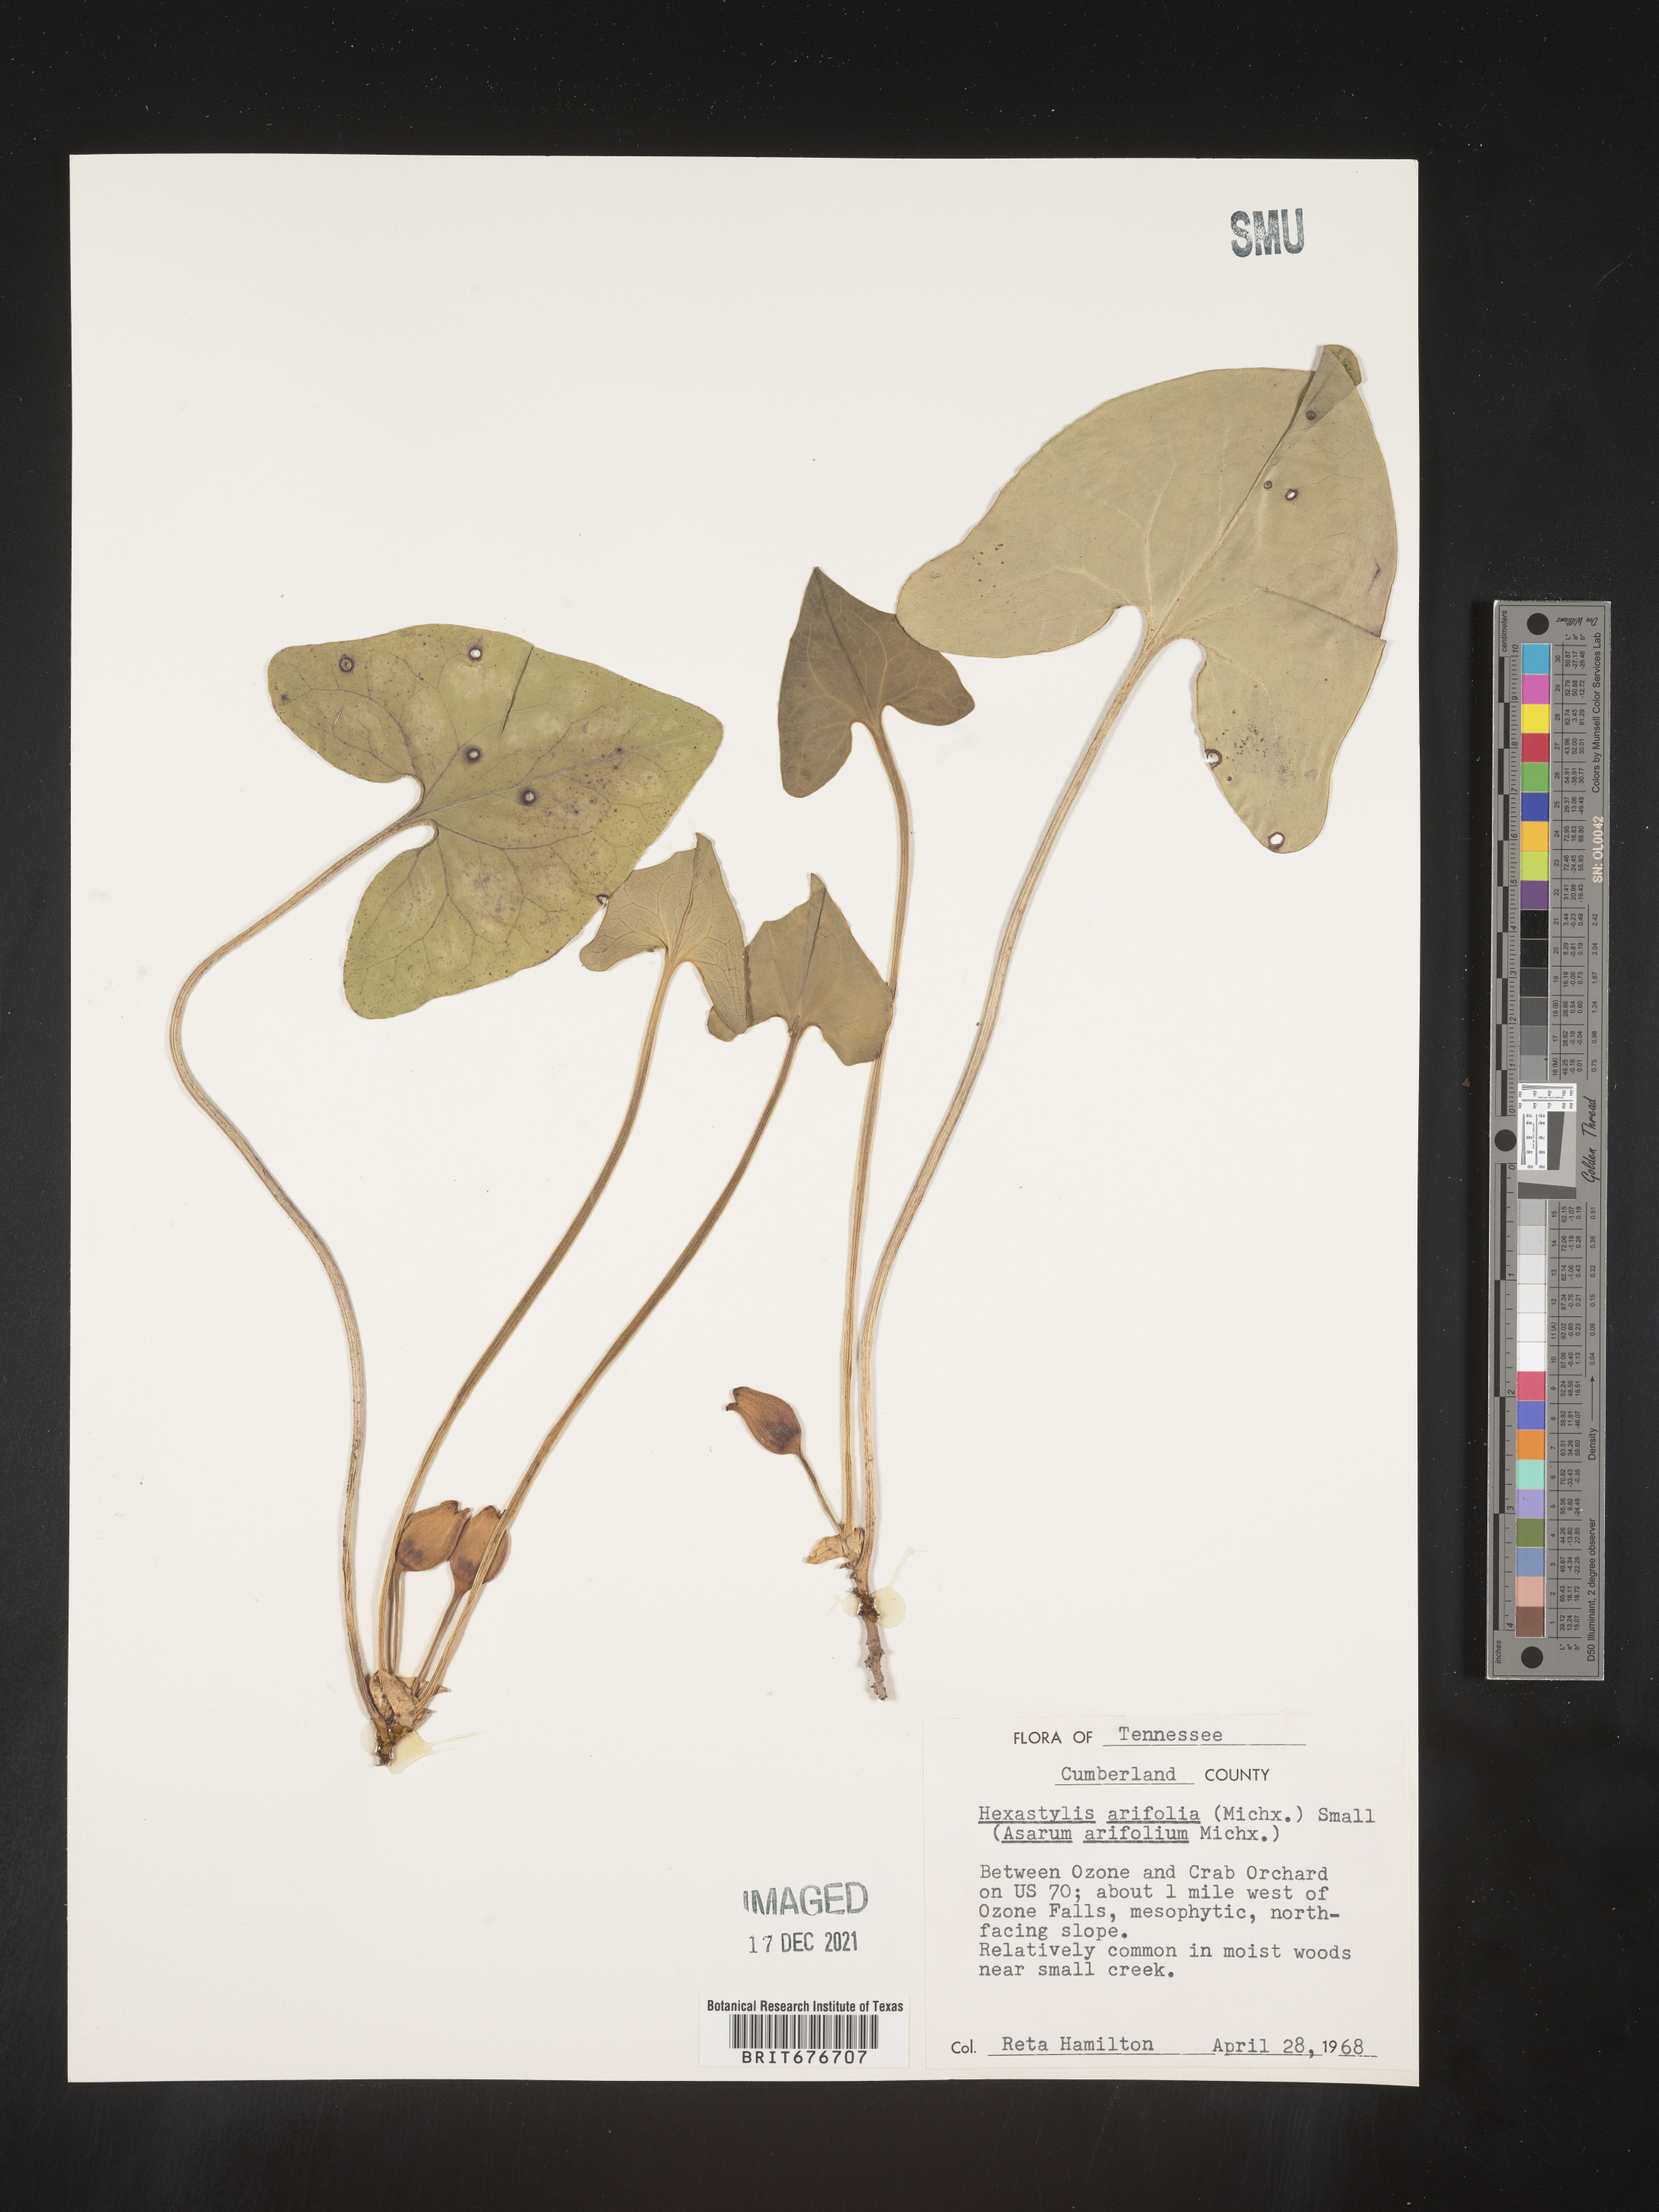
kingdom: Plantae
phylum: Tracheophyta
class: Magnoliopsida
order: Piperales
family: Aristolochiaceae
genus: Hexastylis
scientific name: Hexastylis arifolia
